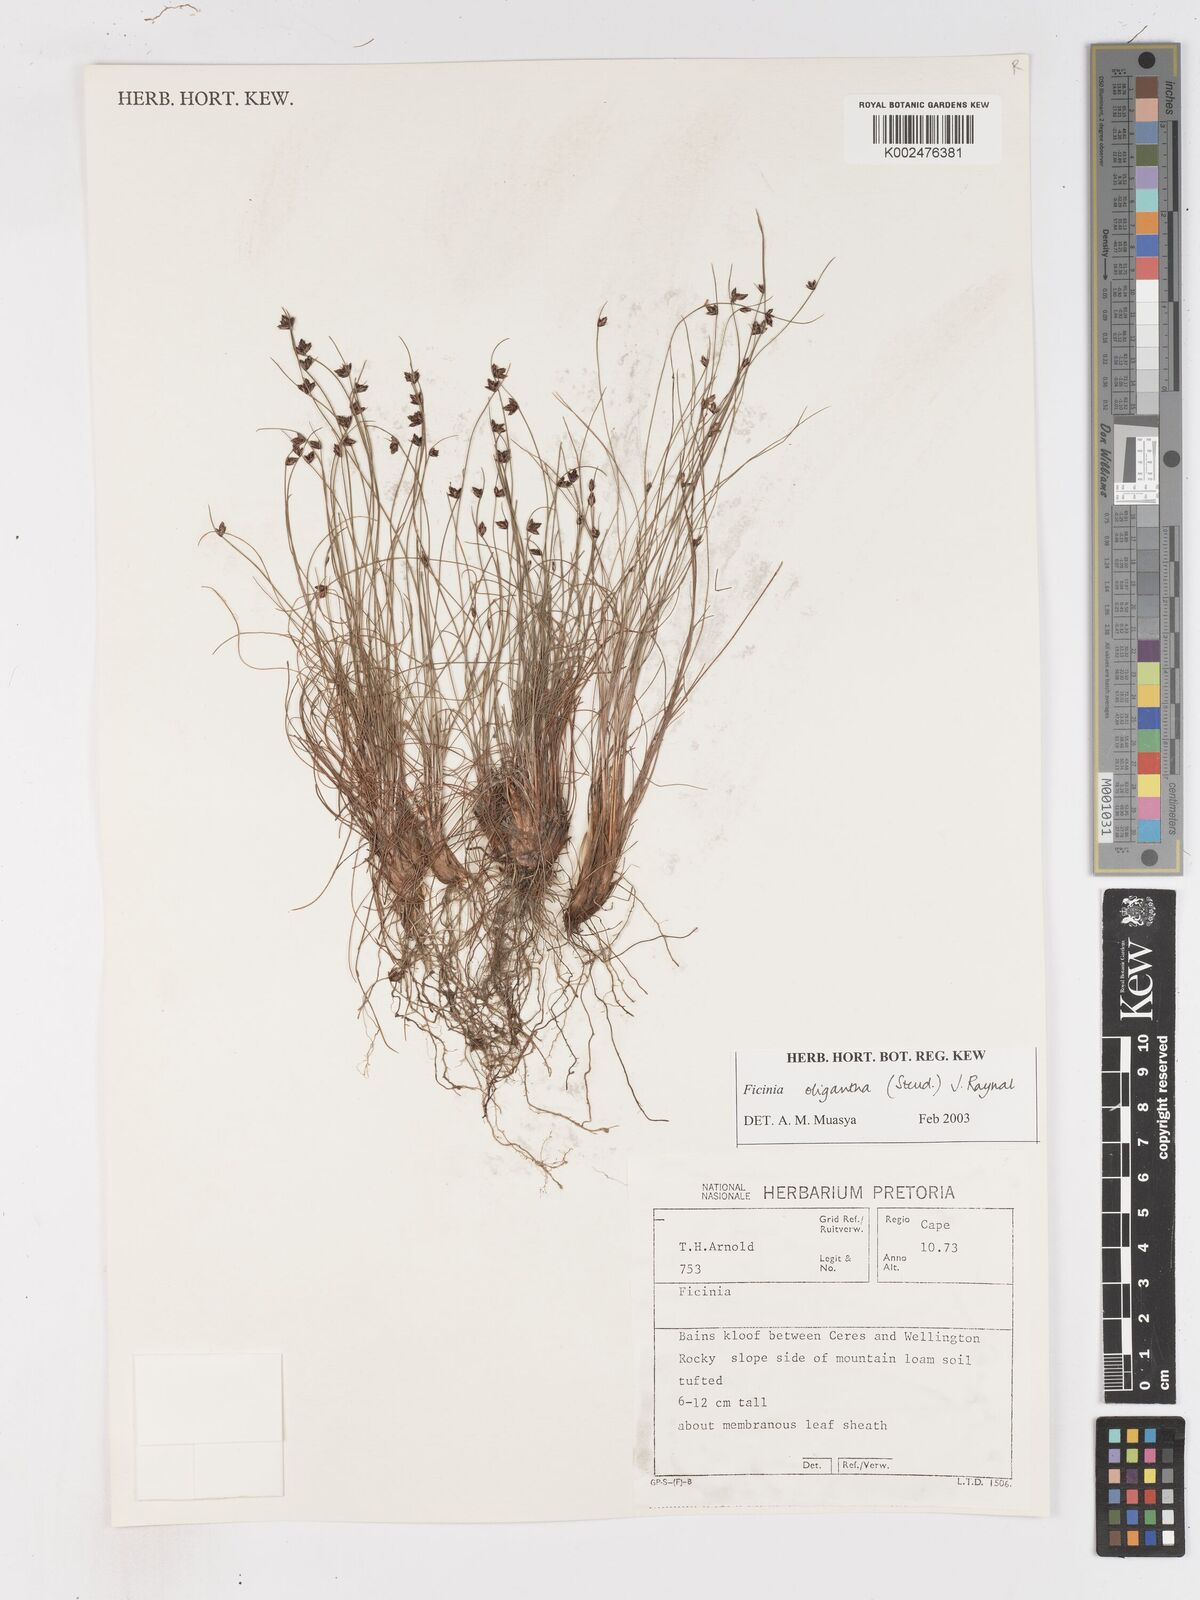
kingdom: Plantae
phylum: Tracheophyta
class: Liliopsida
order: Poales
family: Cyperaceae
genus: Ficinia
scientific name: Ficinia oligantha
